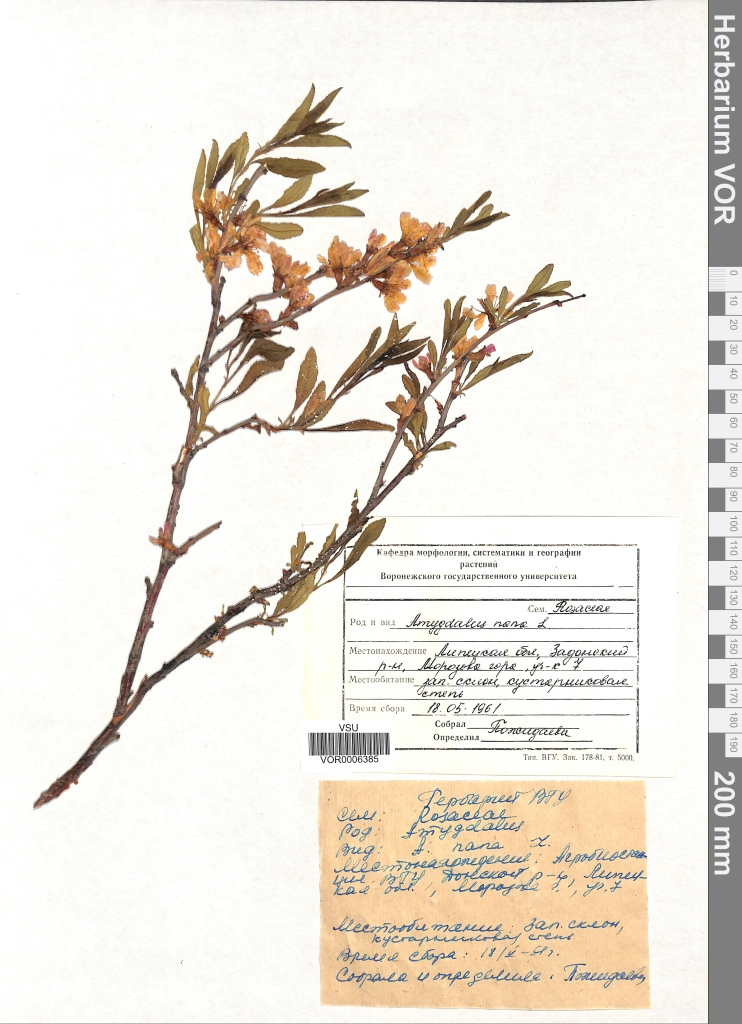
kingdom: Plantae
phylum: Tracheophyta
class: Magnoliopsida
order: Rosales
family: Rosaceae
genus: Prunus
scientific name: Prunus tenella
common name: Dwarf russian almond
